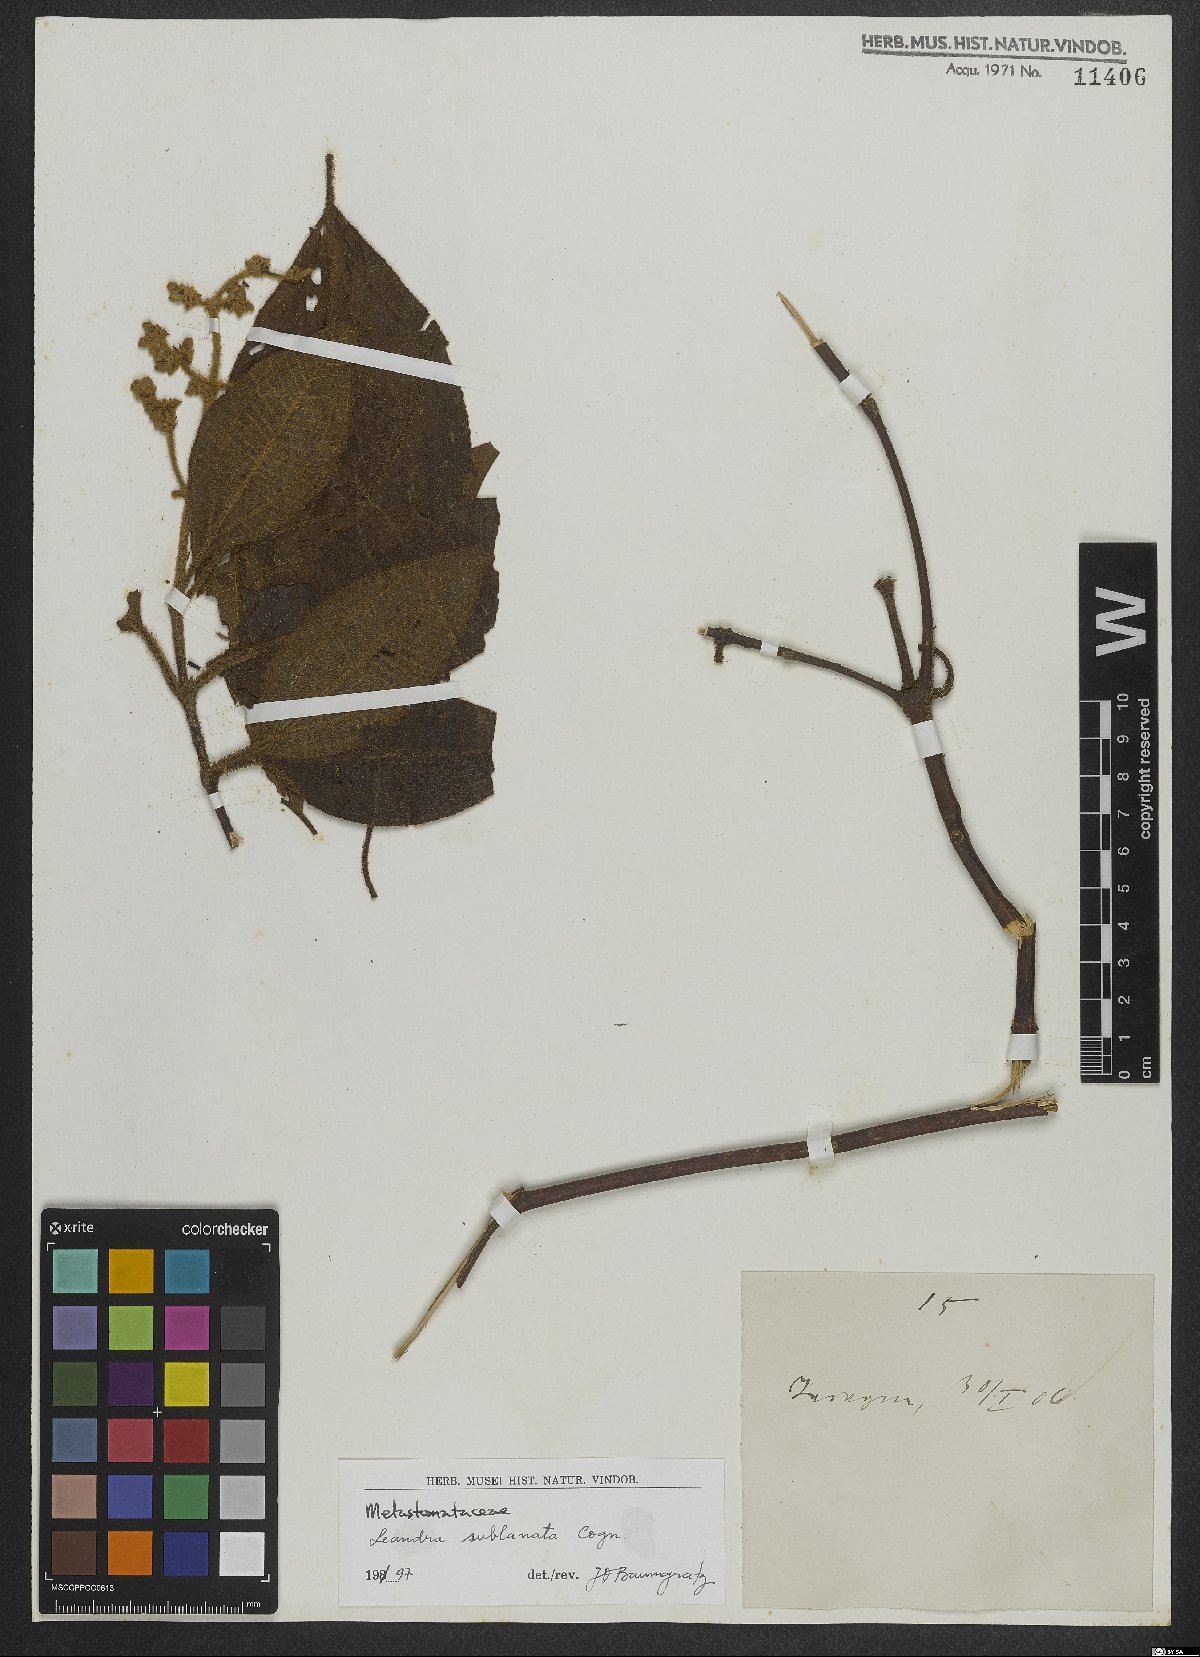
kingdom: Plantae
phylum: Tracheophyta
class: Magnoliopsida
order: Myrtales
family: Melastomataceae
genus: Miconia
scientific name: Miconia sublanata
